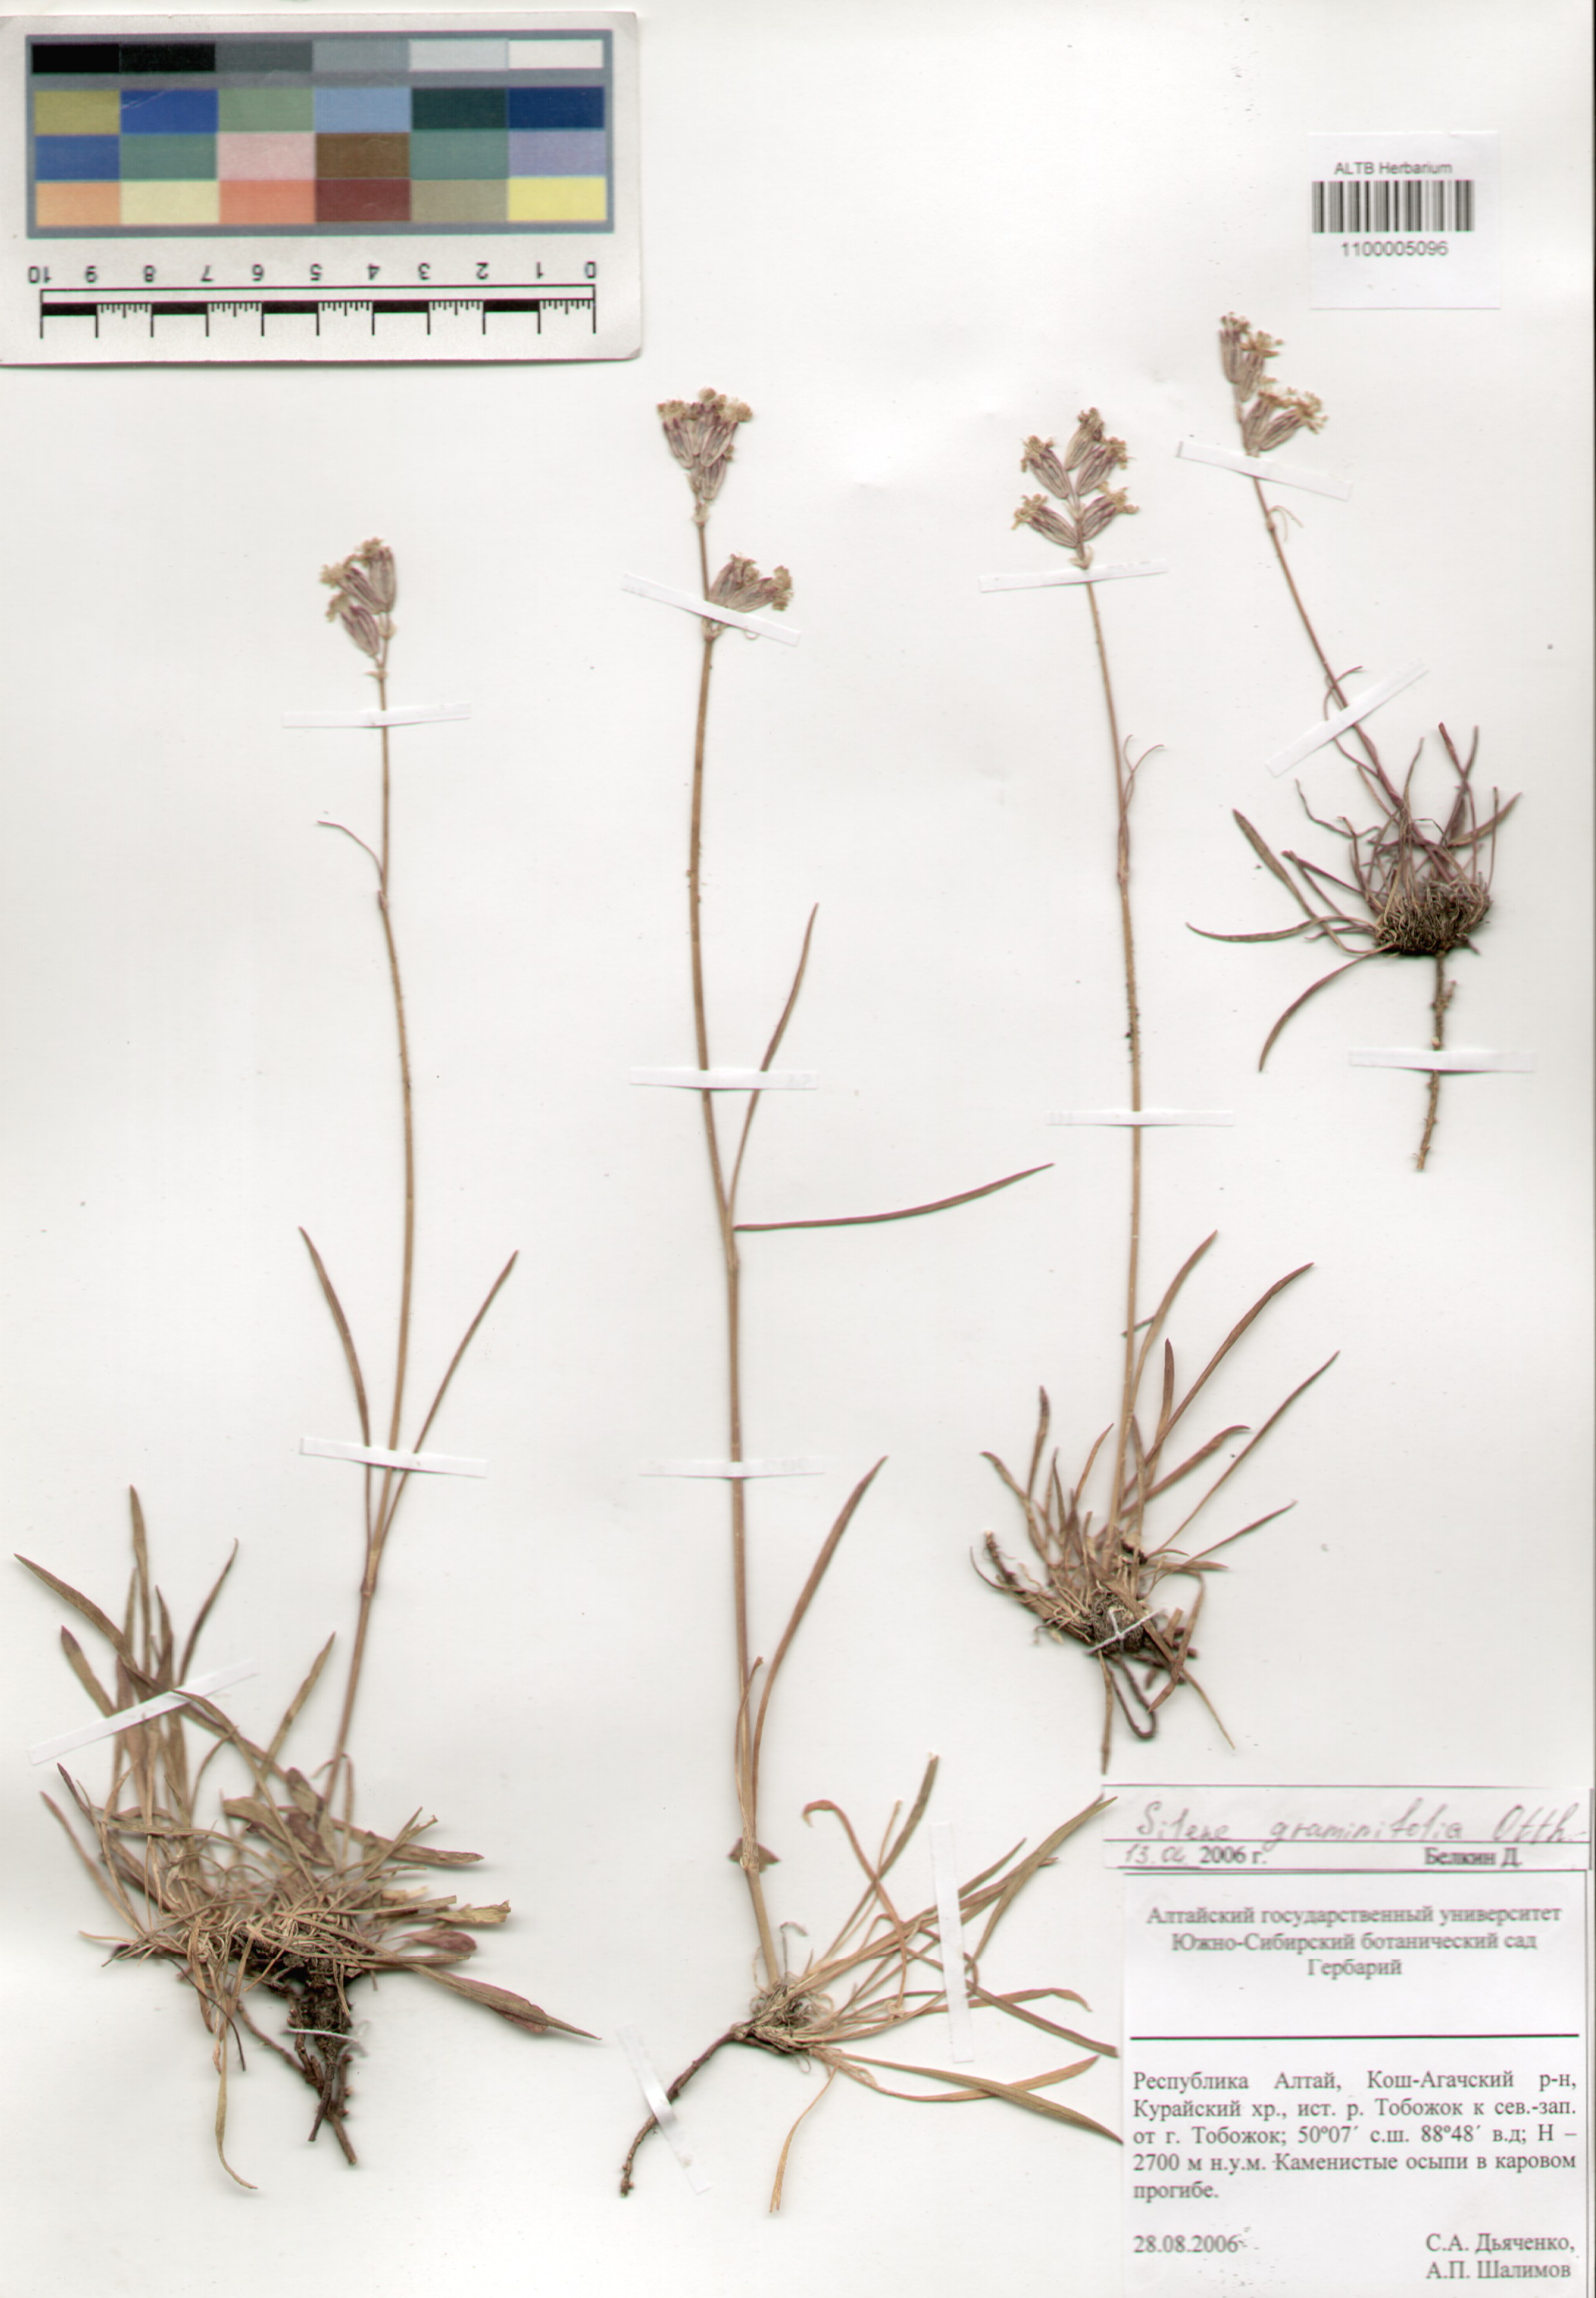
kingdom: Plantae
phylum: Tracheophyta
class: Magnoliopsida
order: Caryophyllales
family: Caryophyllaceae
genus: Silene
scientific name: Silene graminifolia
